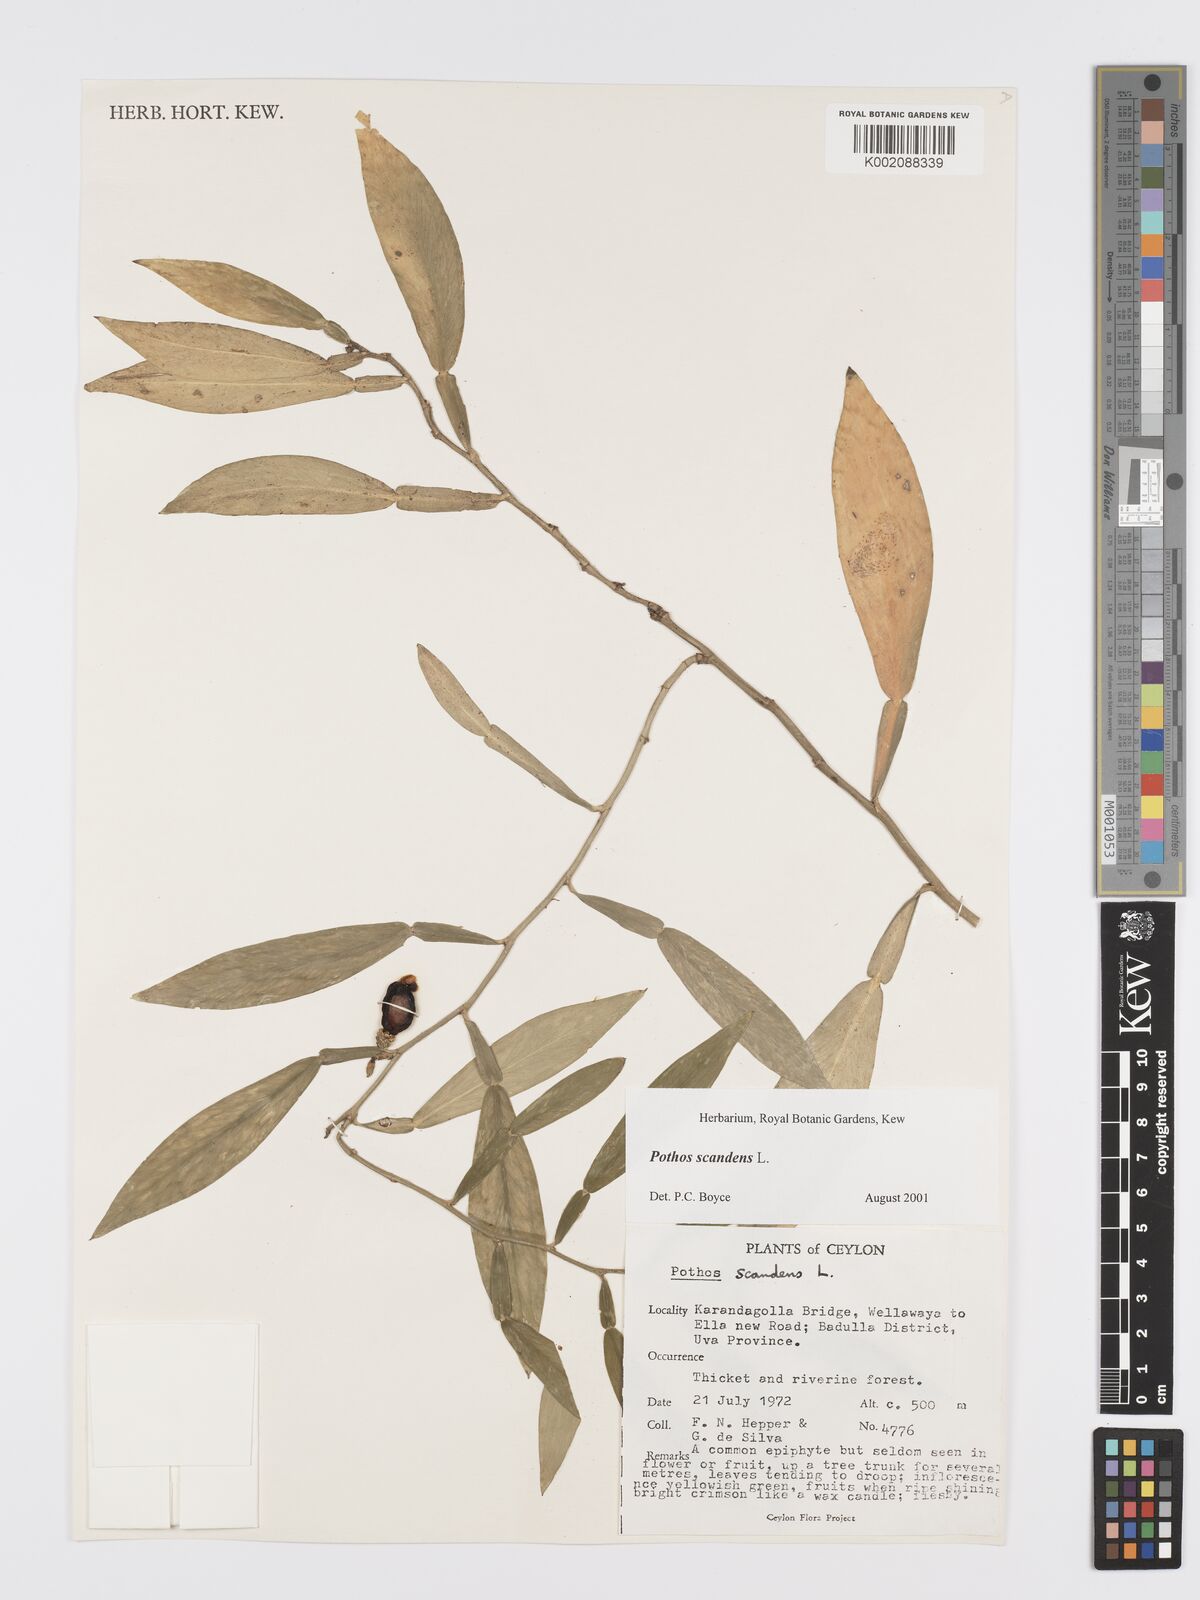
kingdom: Plantae
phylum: Tracheophyta
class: Liliopsida
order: Alismatales
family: Araceae
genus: Pothos
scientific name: Pothos scandens
